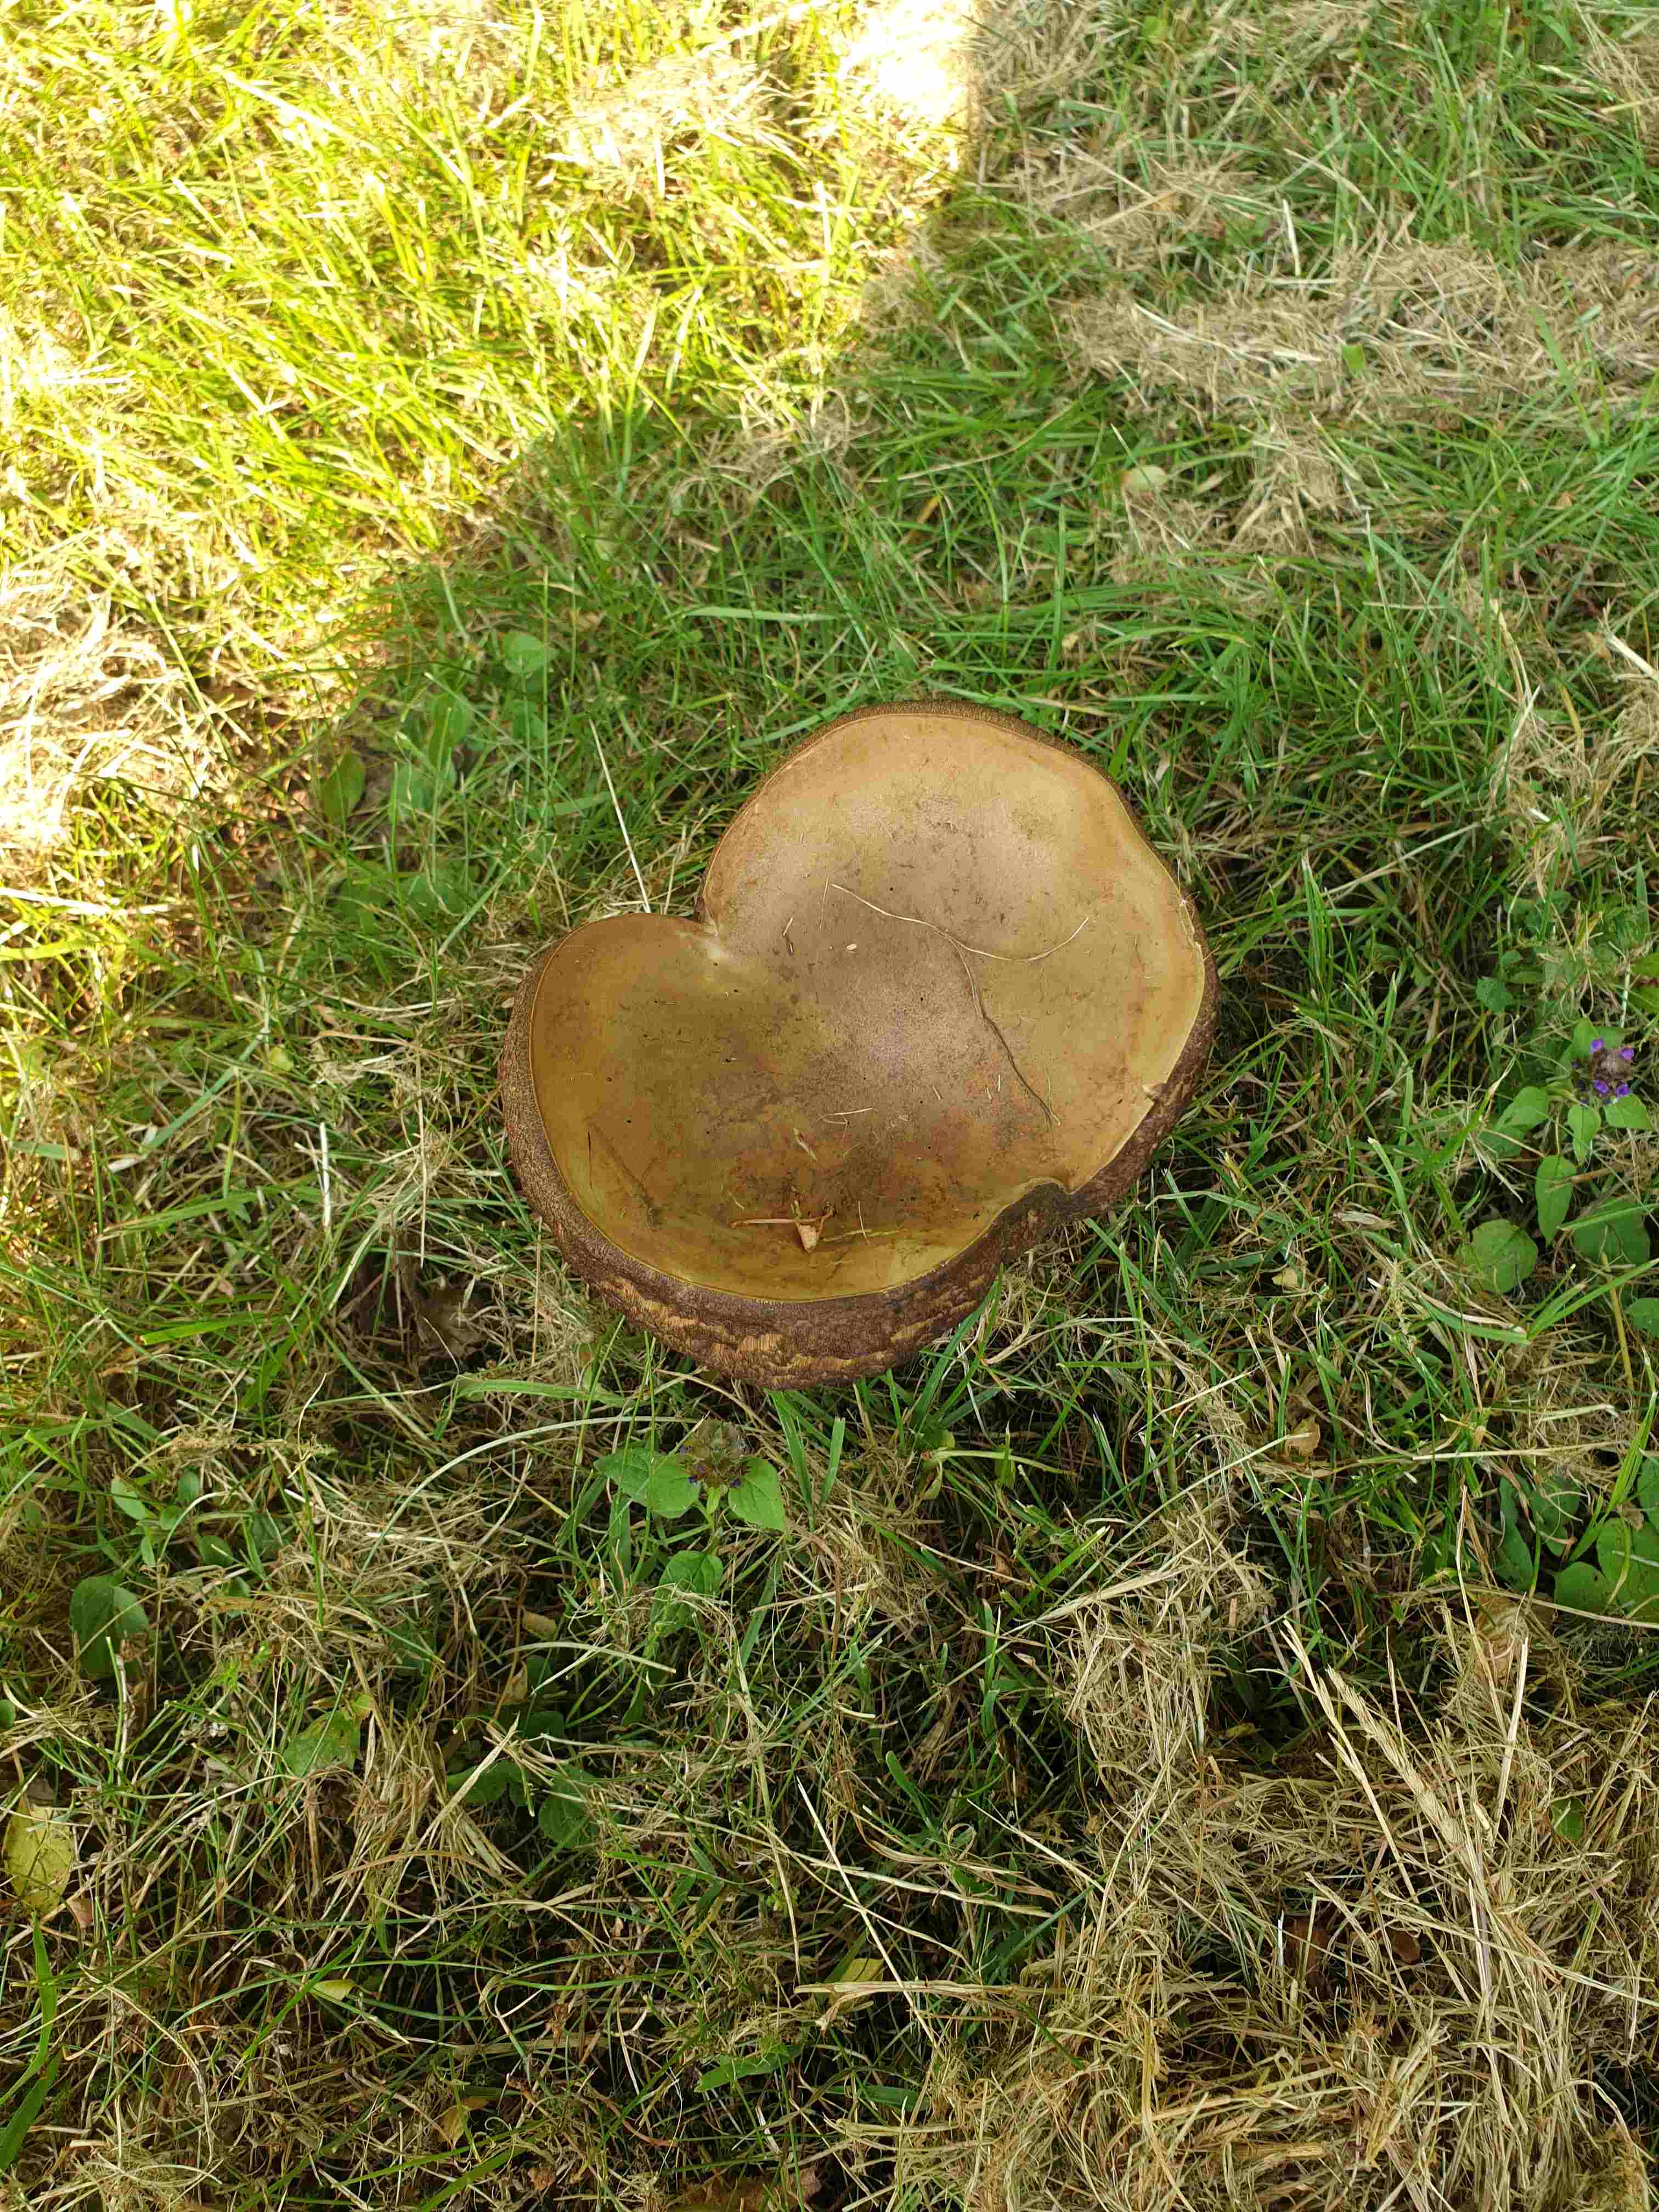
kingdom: Fungi
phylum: Basidiomycota
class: Agaricomycetes
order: Boletales
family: Boletaceae
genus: Suillellus
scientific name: Suillellus luridus
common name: netstokket indigorørhat
